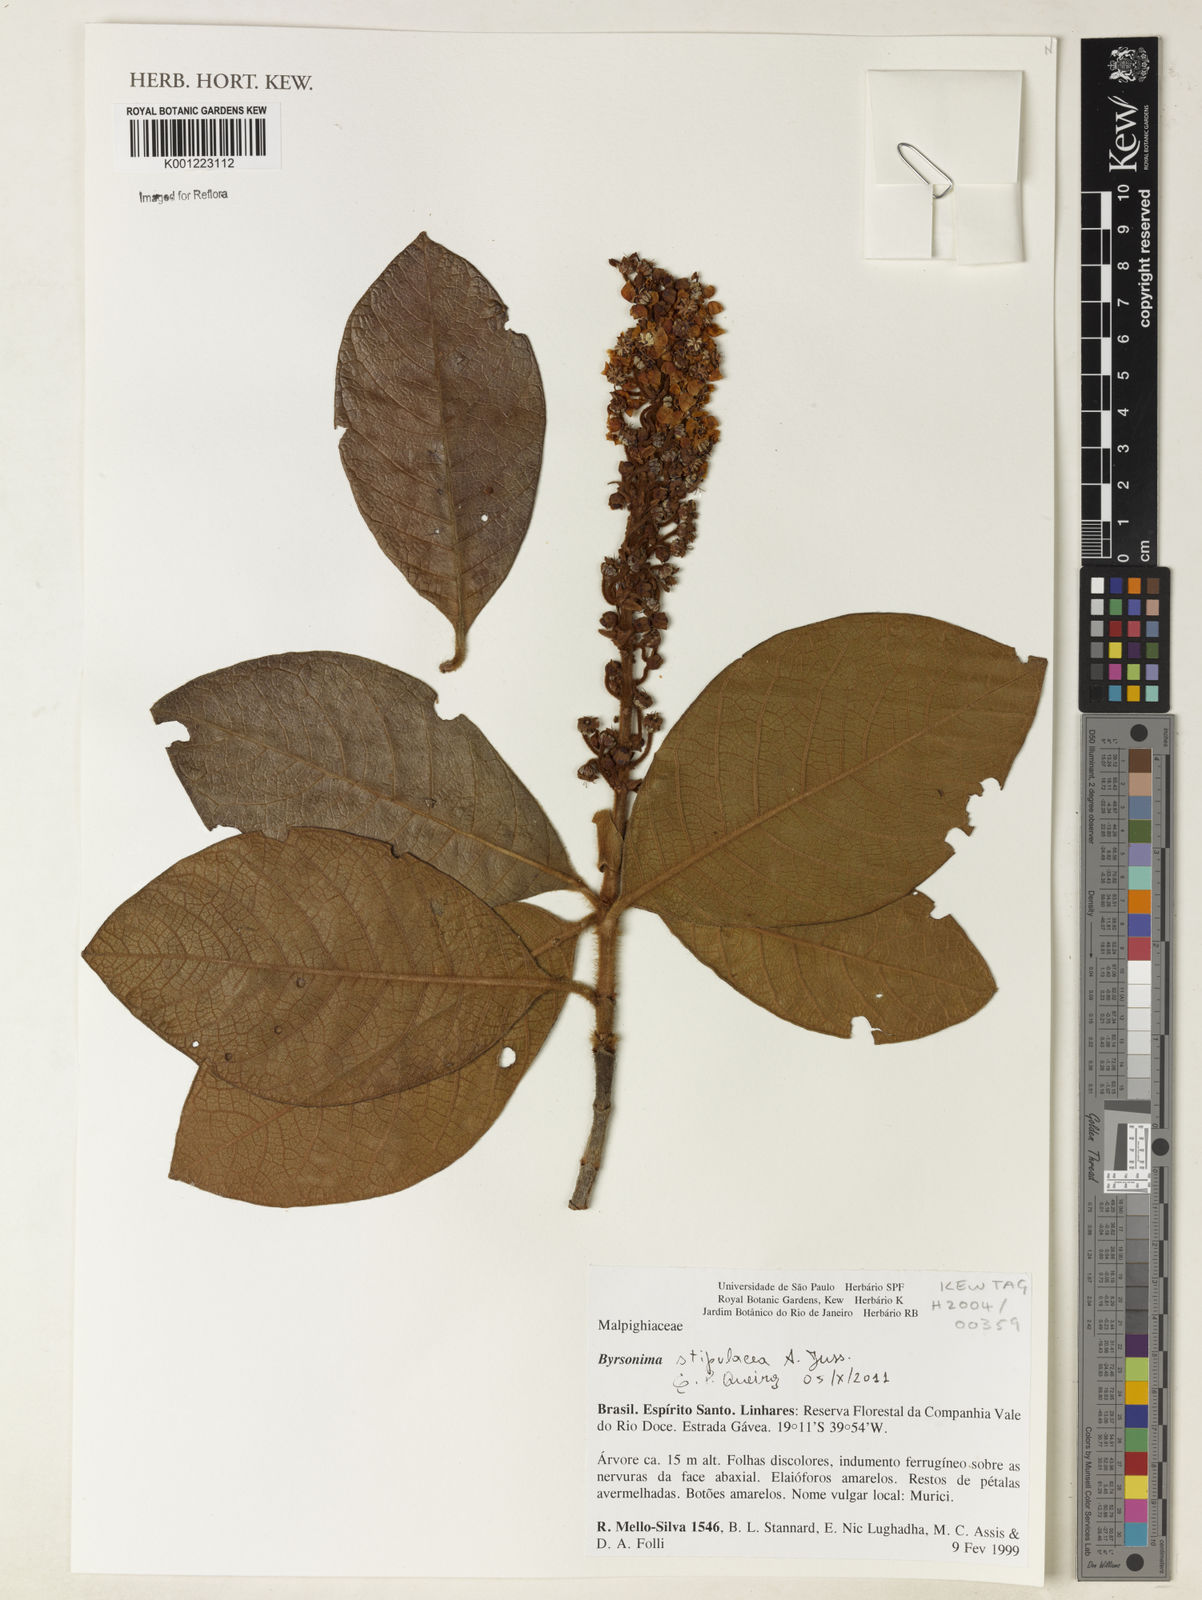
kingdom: Plantae
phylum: Tracheophyta
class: Magnoliopsida
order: Malpighiales
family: Malpighiaceae
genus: Byrsonima
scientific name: Byrsonima stipulacea
